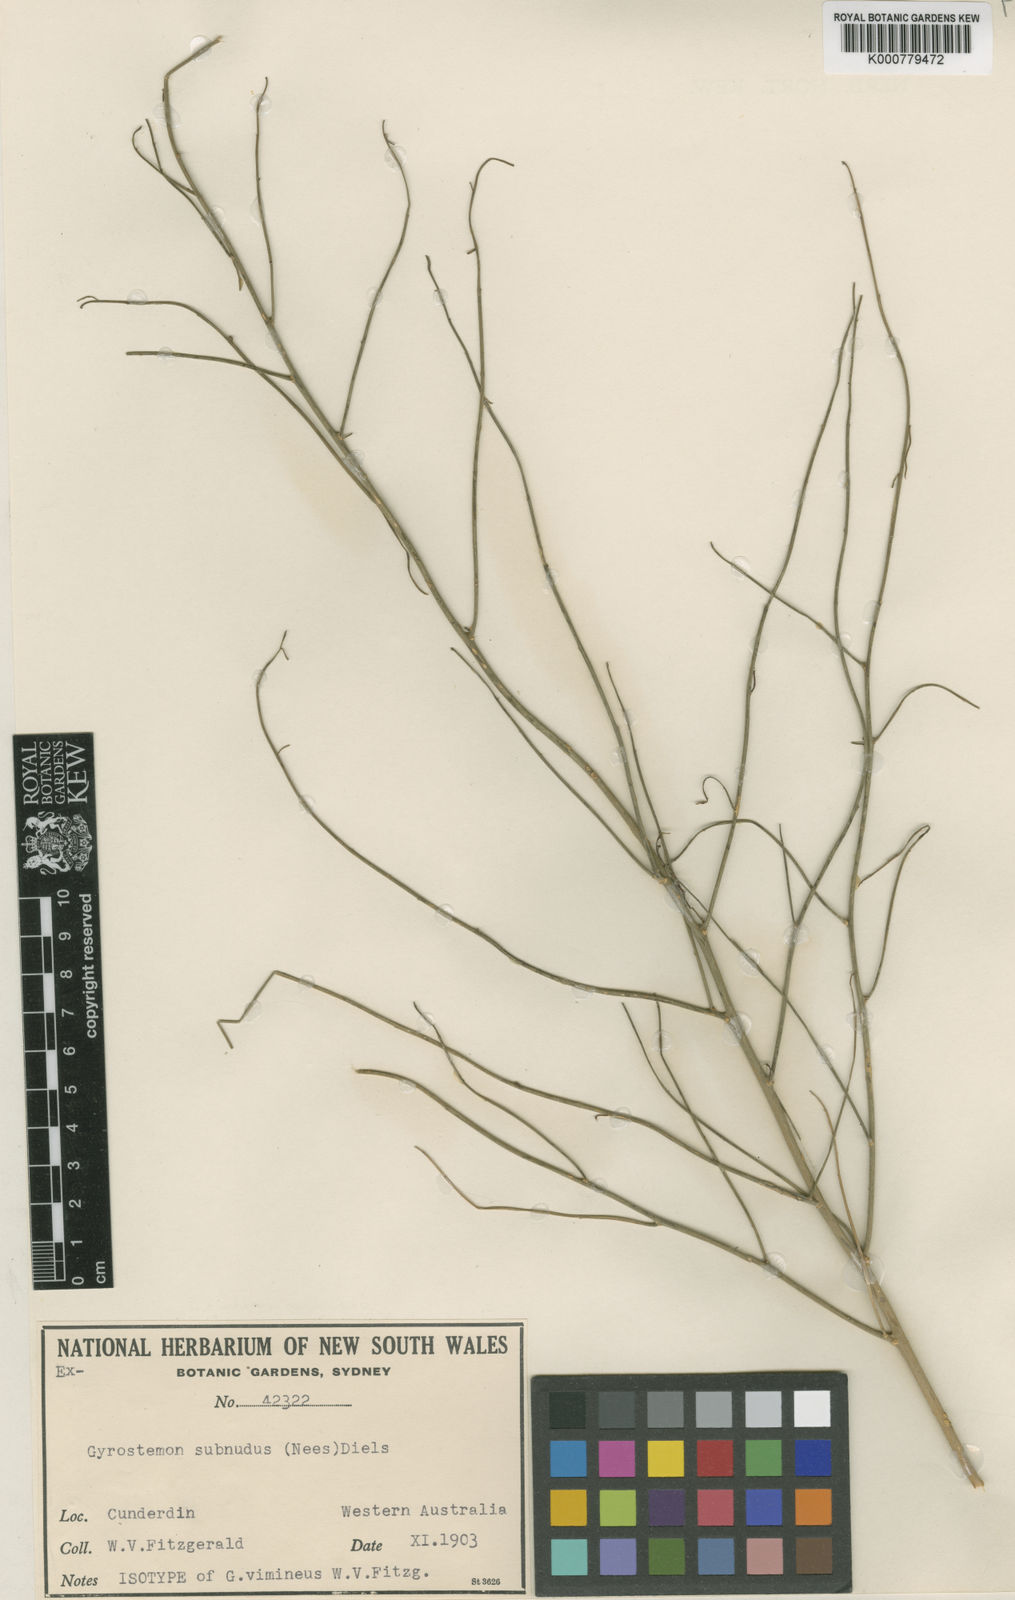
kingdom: Plantae
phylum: Tracheophyta
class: Magnoliopsida
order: Brassicales
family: Gyrostemonaceae
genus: Gyrostemon
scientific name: Gyrostemon
